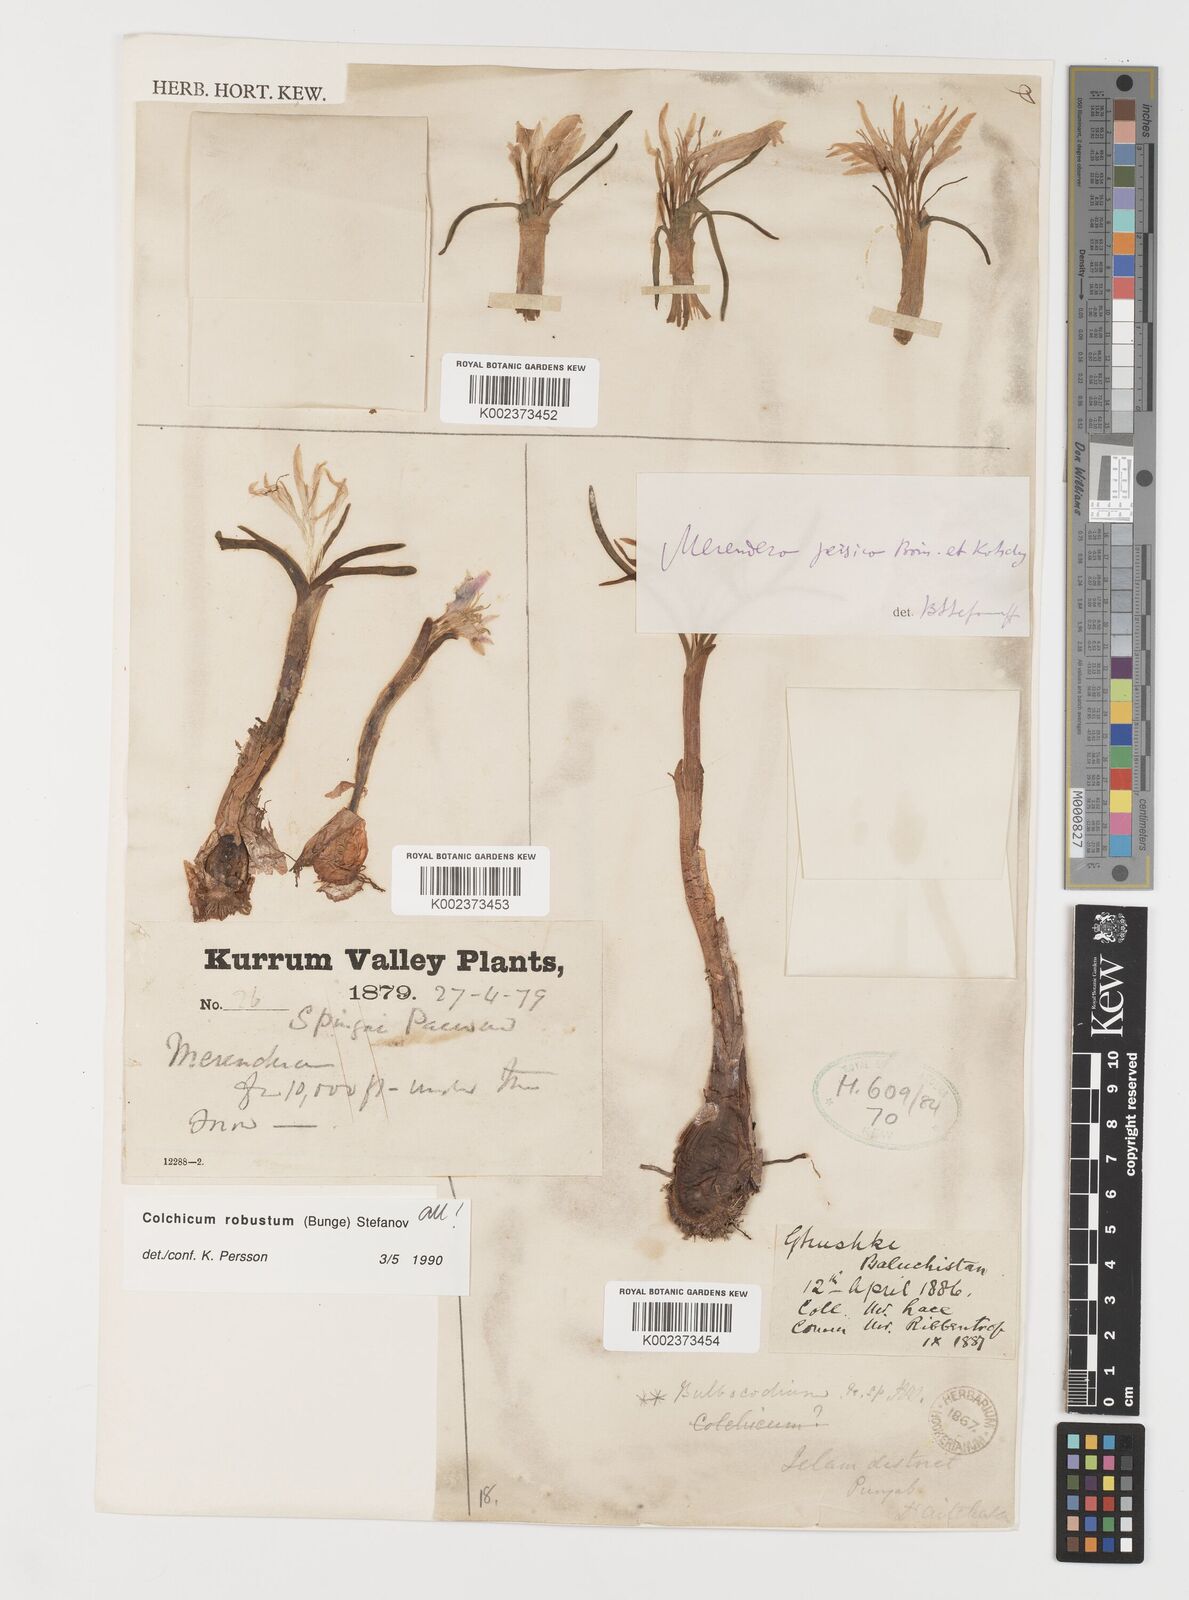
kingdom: Plantae
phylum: Tracheophyta
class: Liliopsida
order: Liliales
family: Colchicaceae
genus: Colchicum
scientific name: Colchicum robustum
